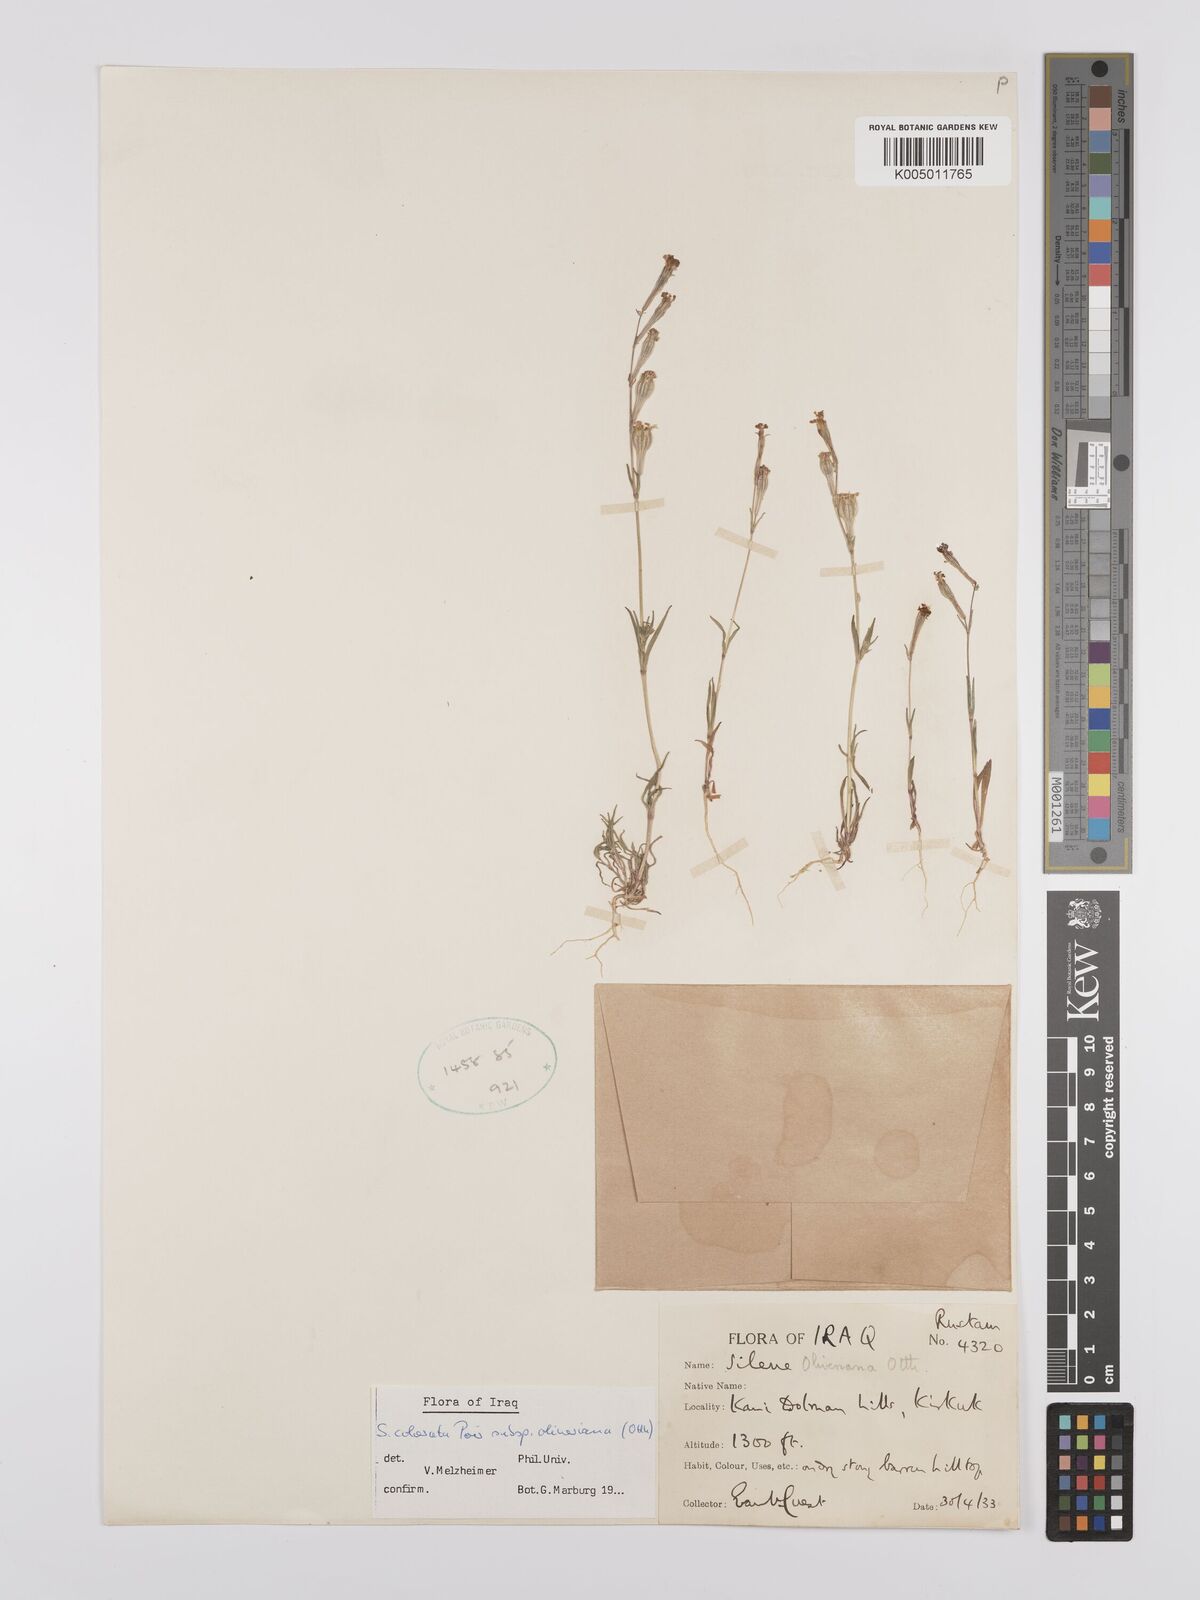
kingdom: Plantae
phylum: Tracheophyta
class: Magnoliopsida
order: Caryophyllales
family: Caryophyllaceae
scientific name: Caryophyllaceae
